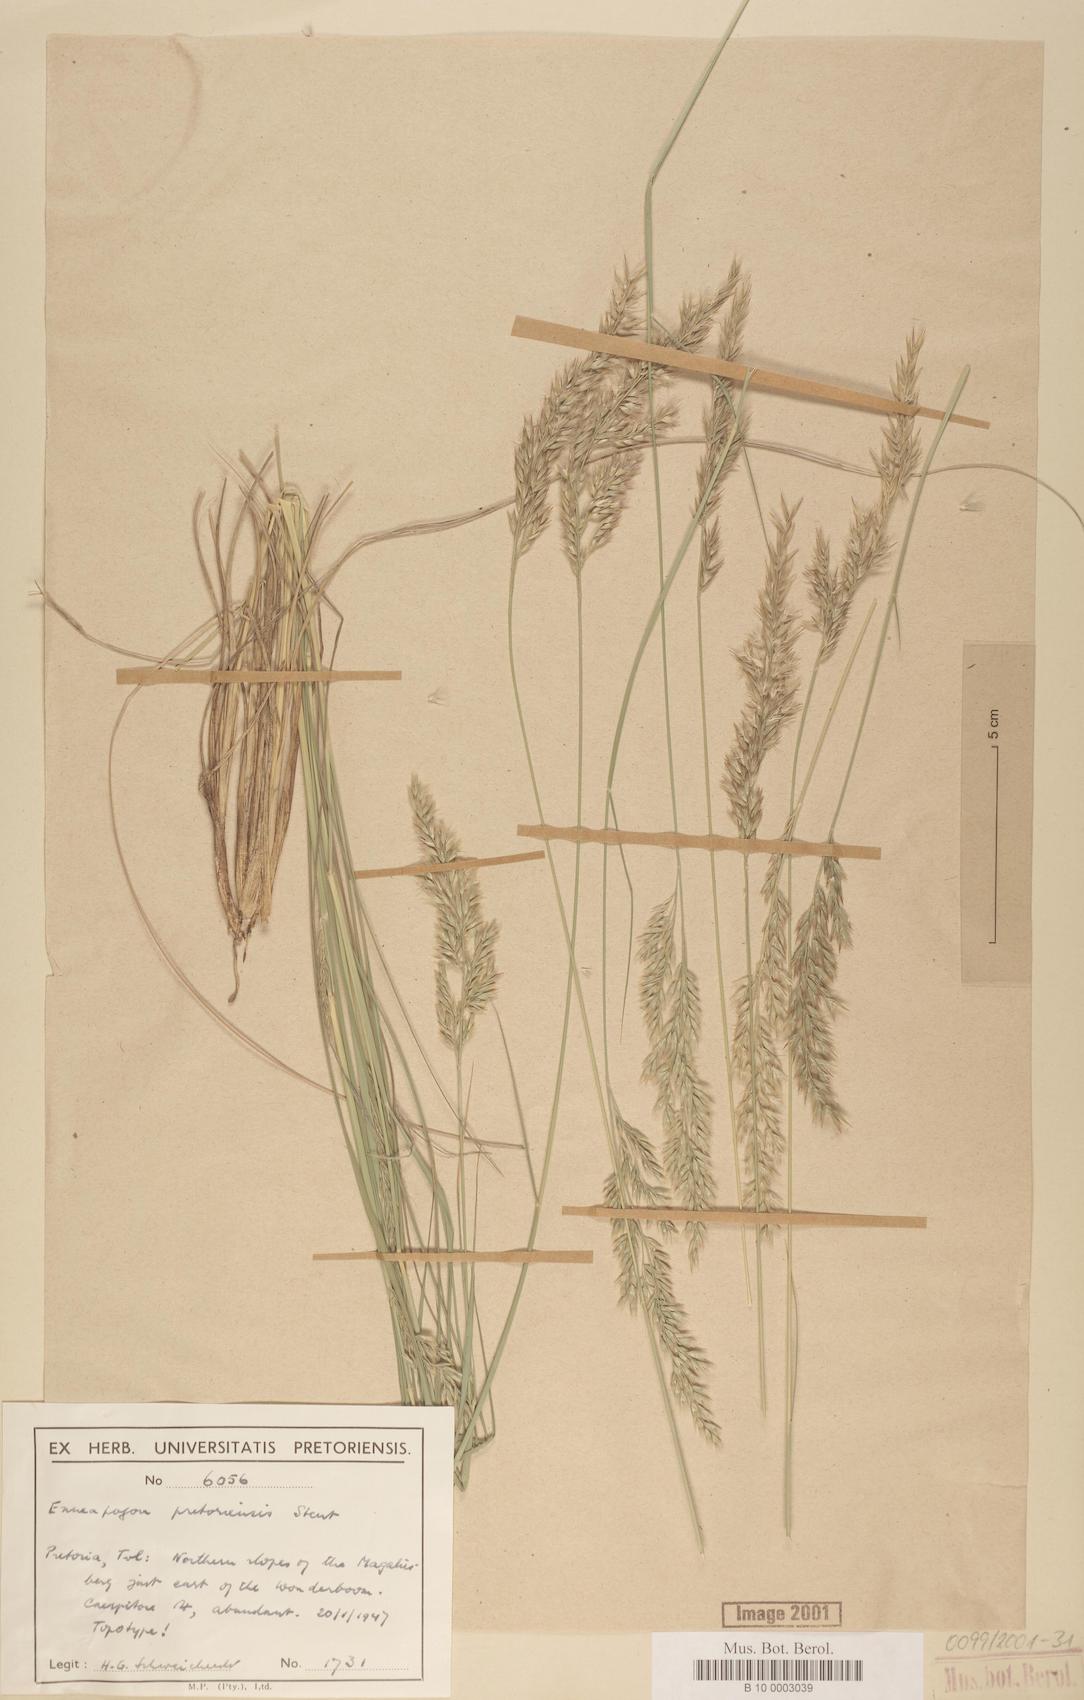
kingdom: Plantae
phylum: Tracheophyta
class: Liliopsida
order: Poales
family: Poaceae
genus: Enneapogon
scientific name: Enneapogon pretoriensis
